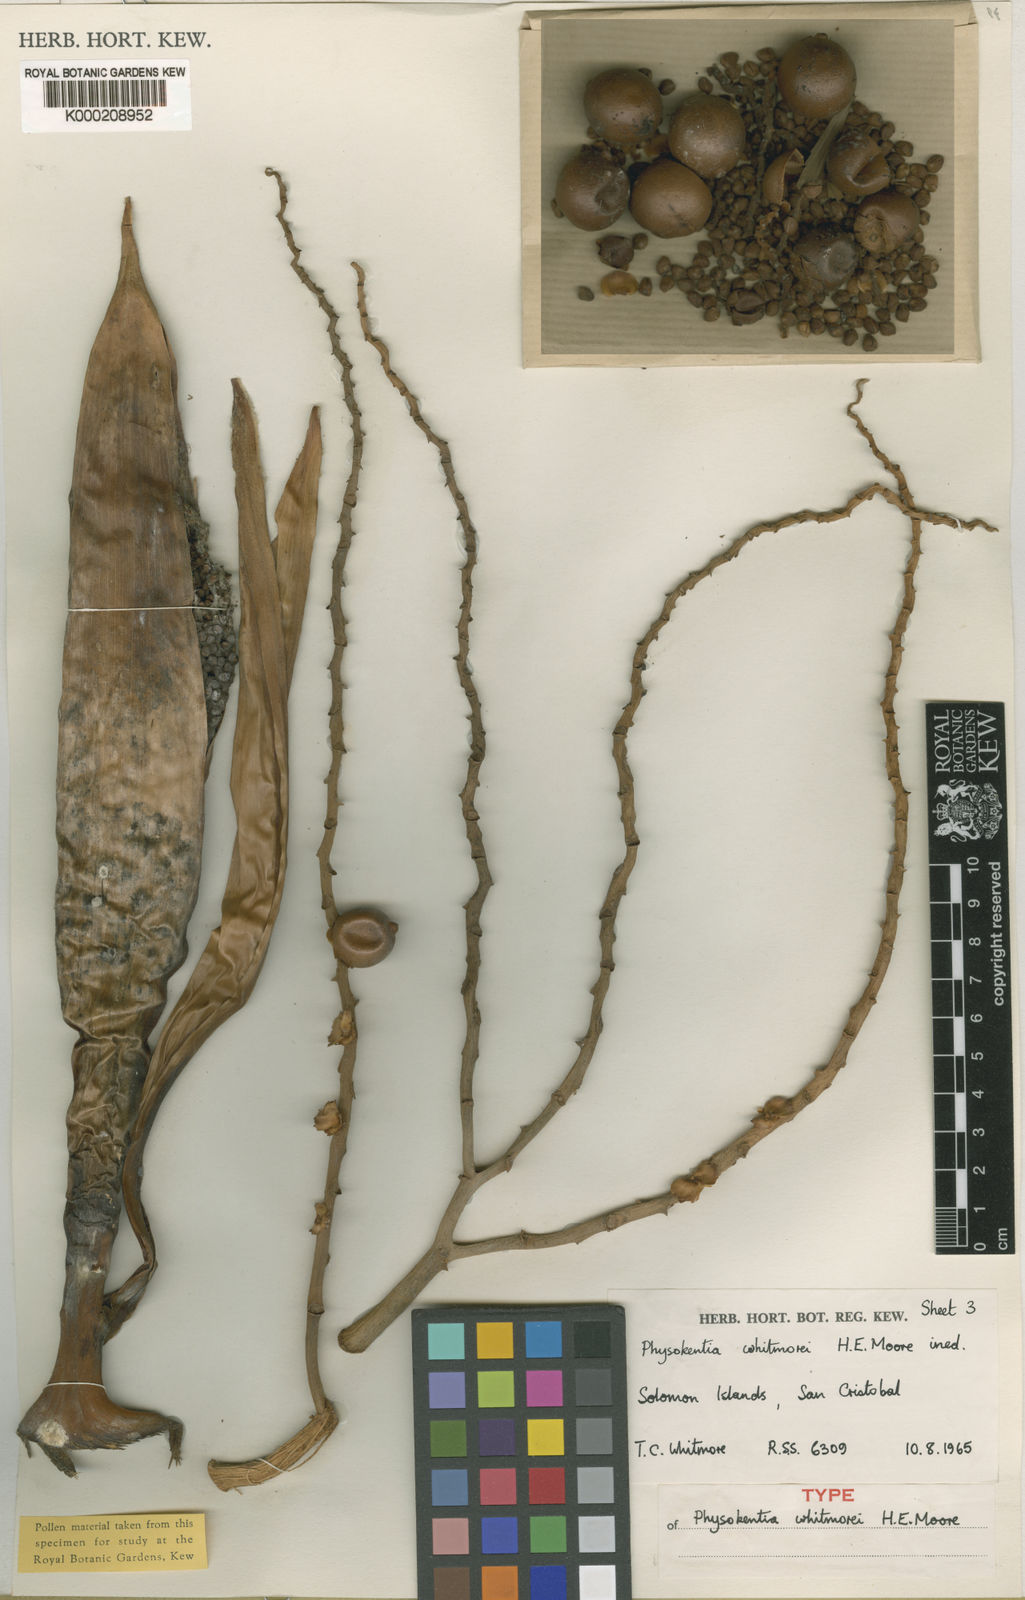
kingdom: Plantae
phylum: Tracheophyta
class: Liliopsida
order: Arecales
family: Arecaceae
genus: Physokentia
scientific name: Physokentia whitmorei
